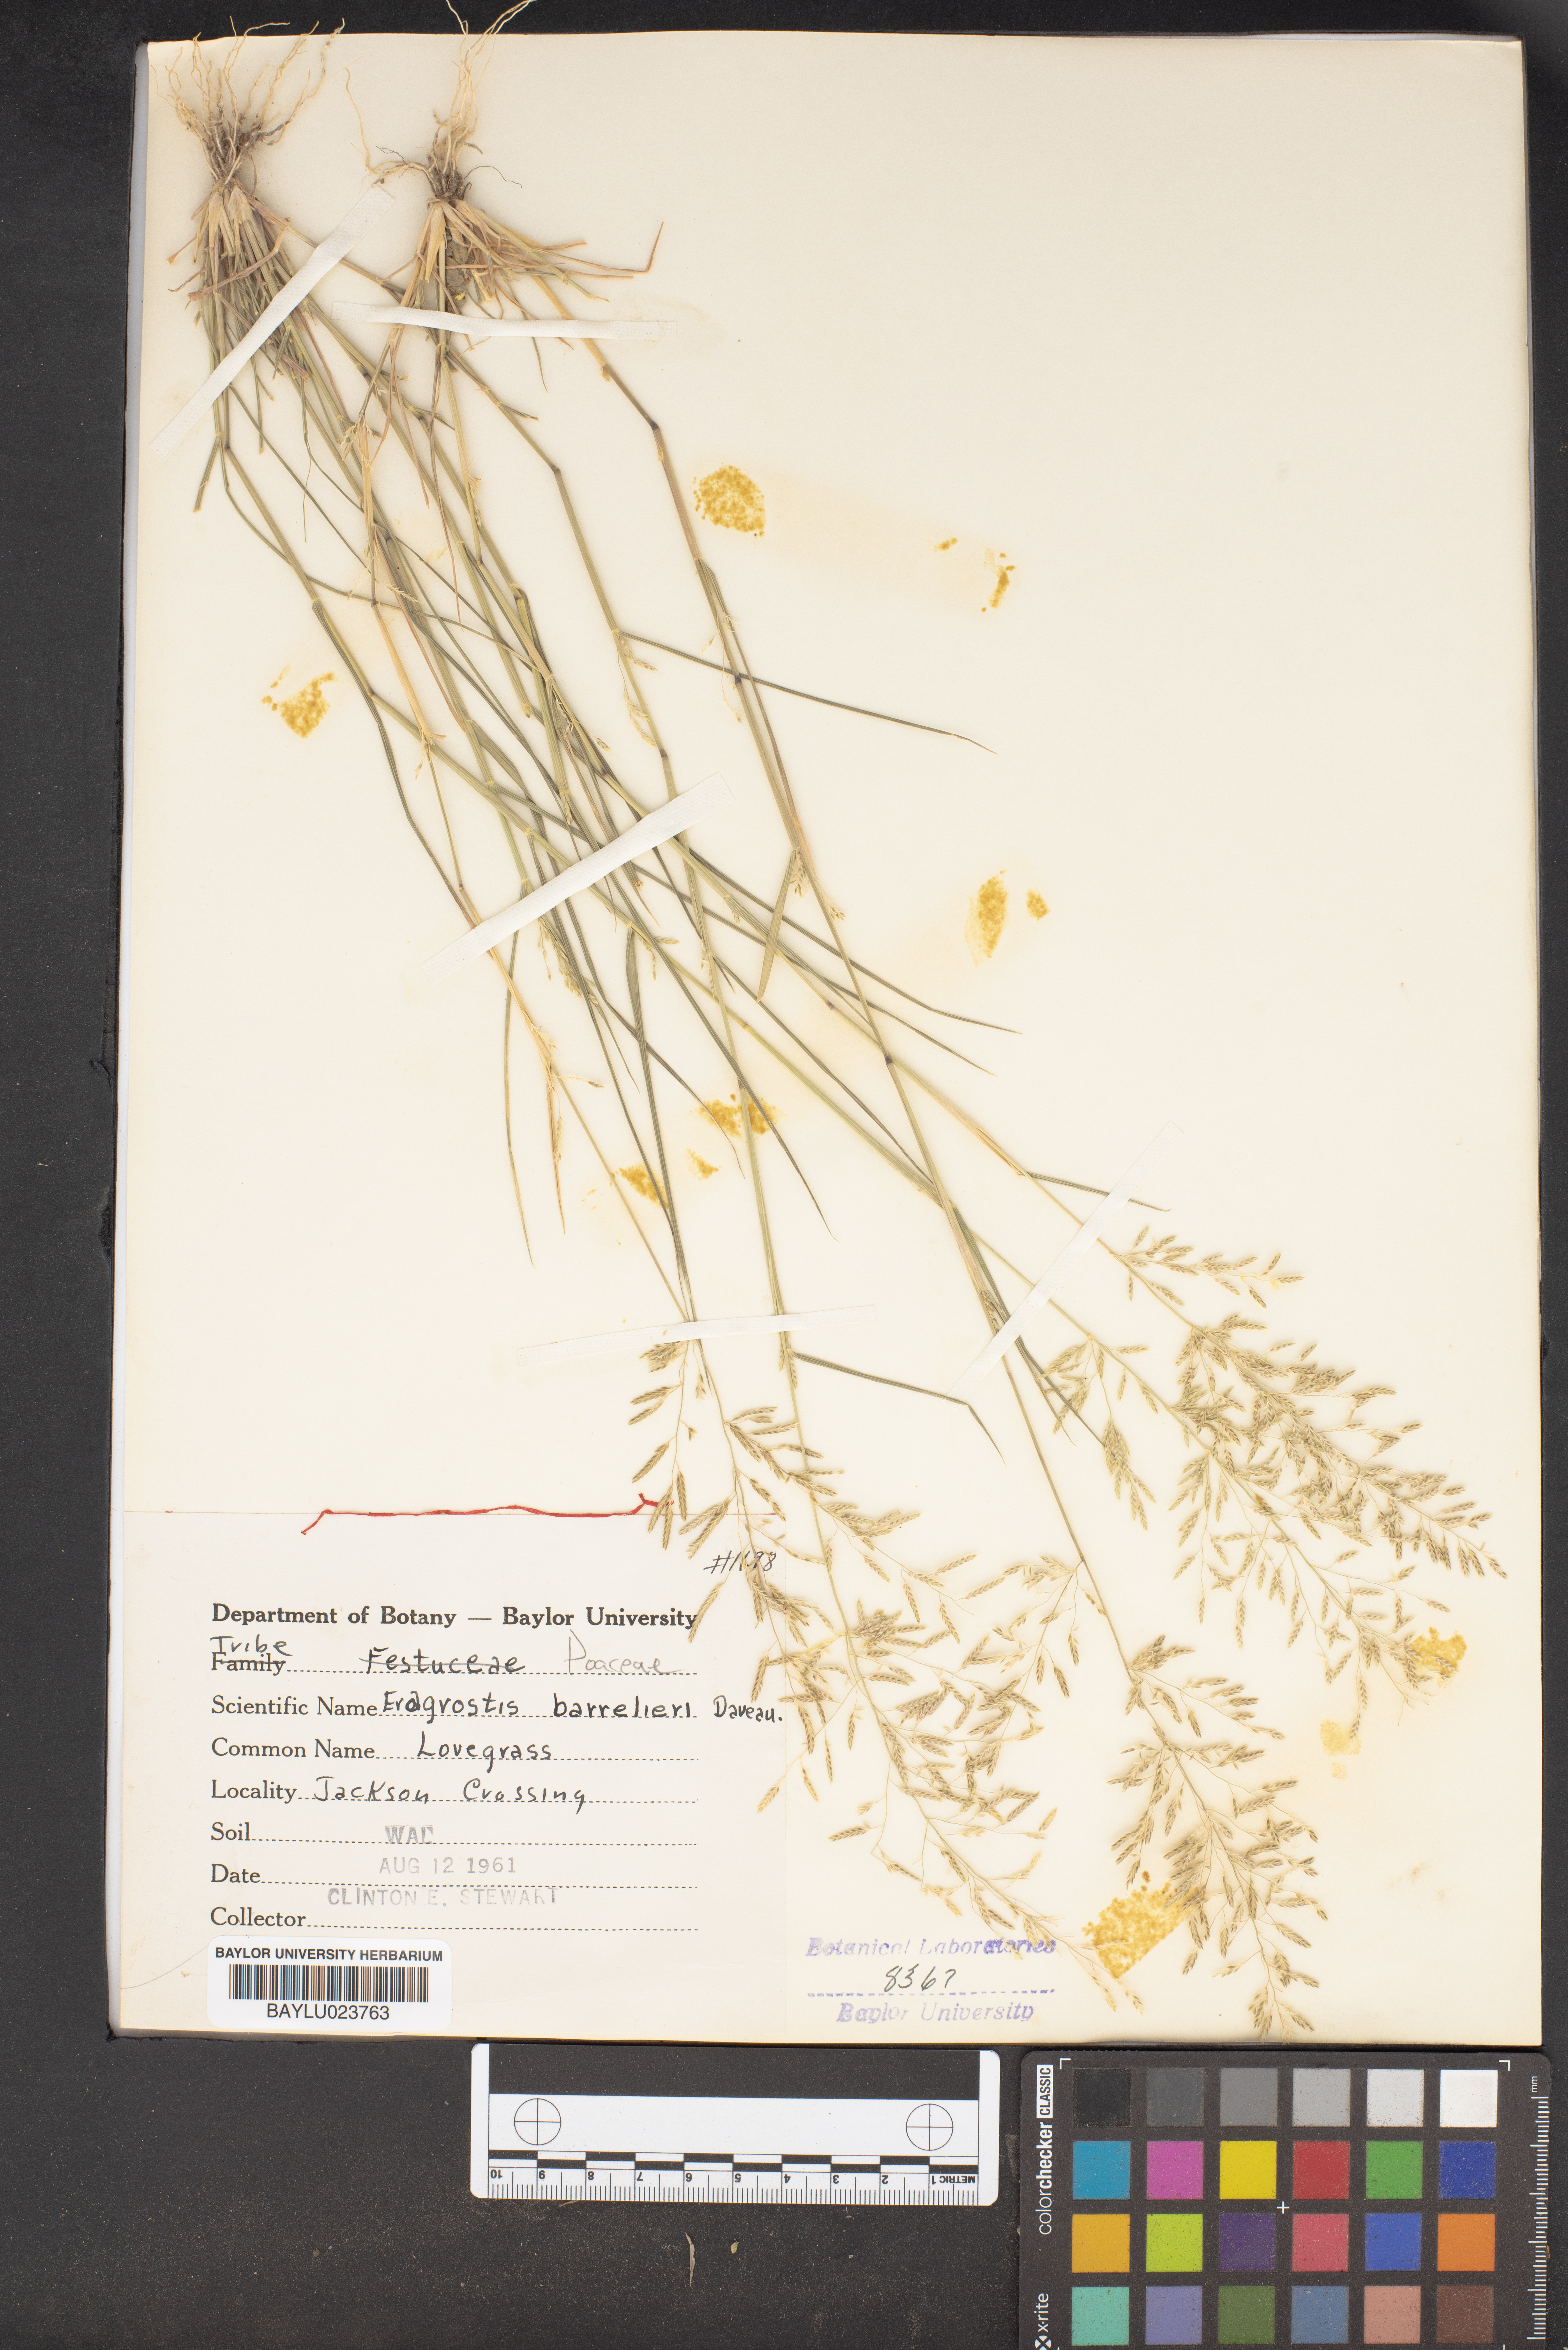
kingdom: Plantae
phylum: Tracheophyta
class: Liliopsida
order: Poales
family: Poaceae
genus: Eragrostis
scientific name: Eragrostis barrelieri
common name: Mediterranean lovegrass
